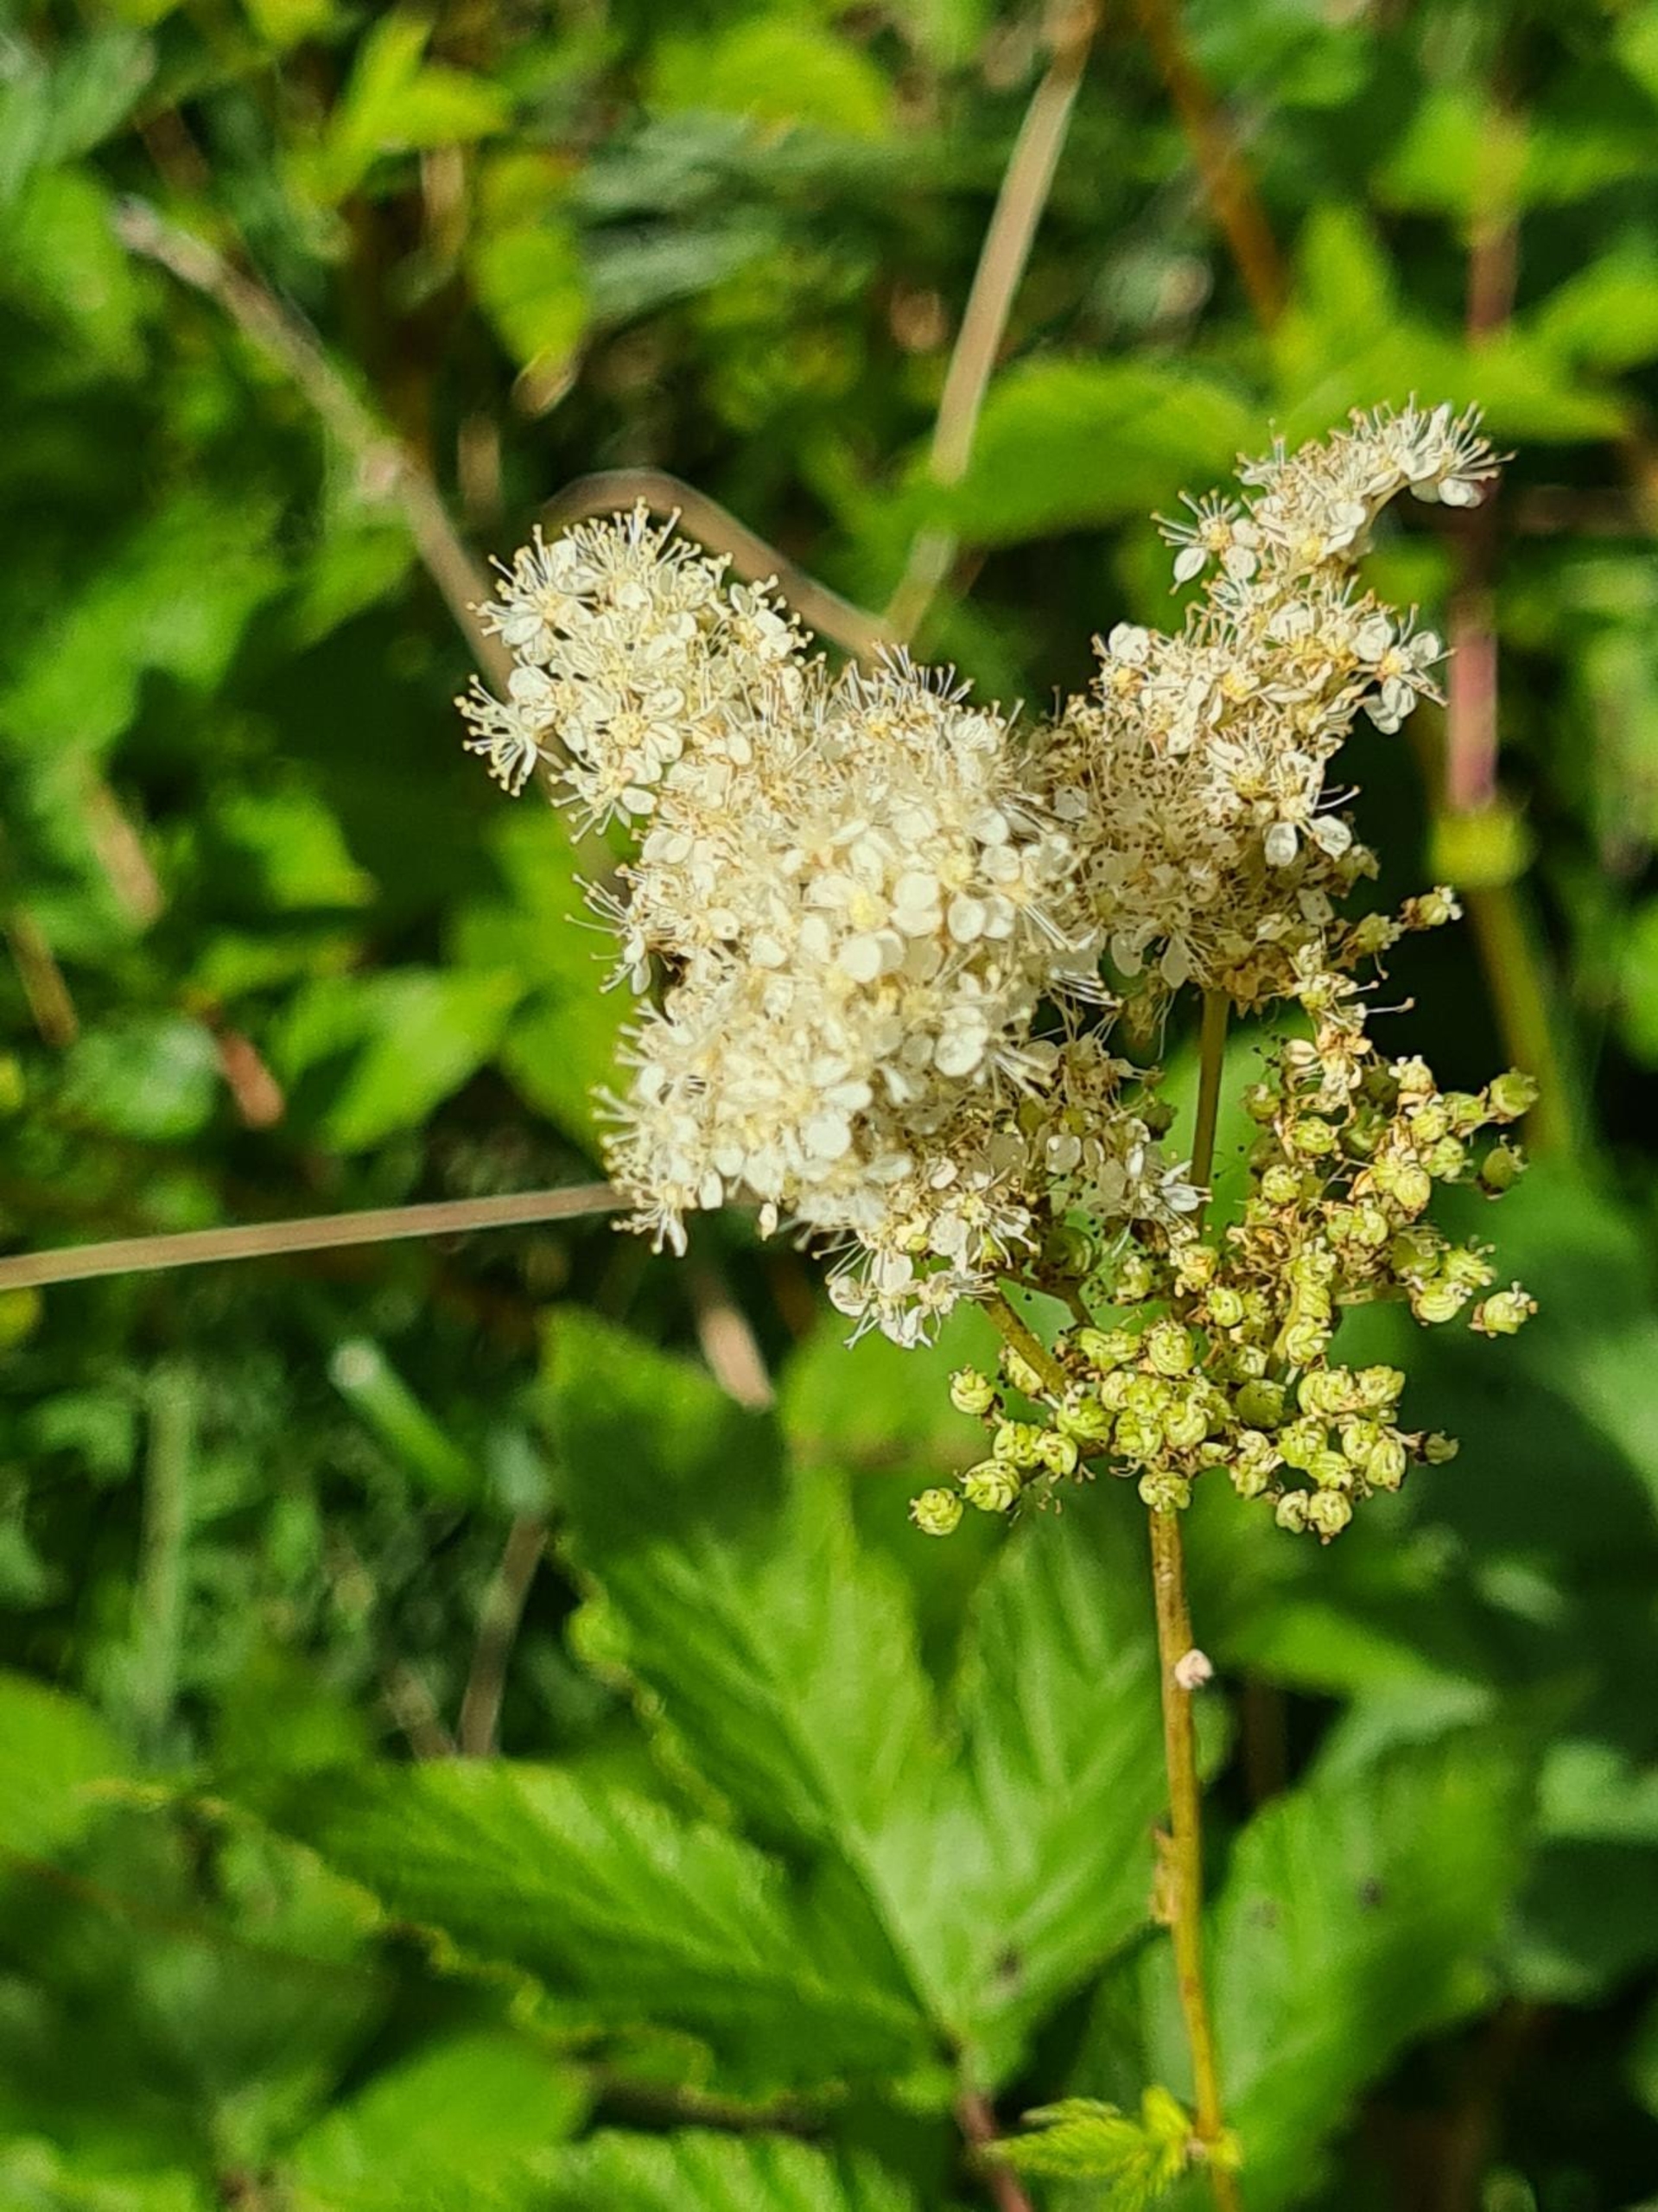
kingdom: Plantae
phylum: Tracheophyta
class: Magnoliopsida
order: Rosales
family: Rosaceae
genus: Filipendula
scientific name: Filipendula ulmaria
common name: Almindelig mjødurt
